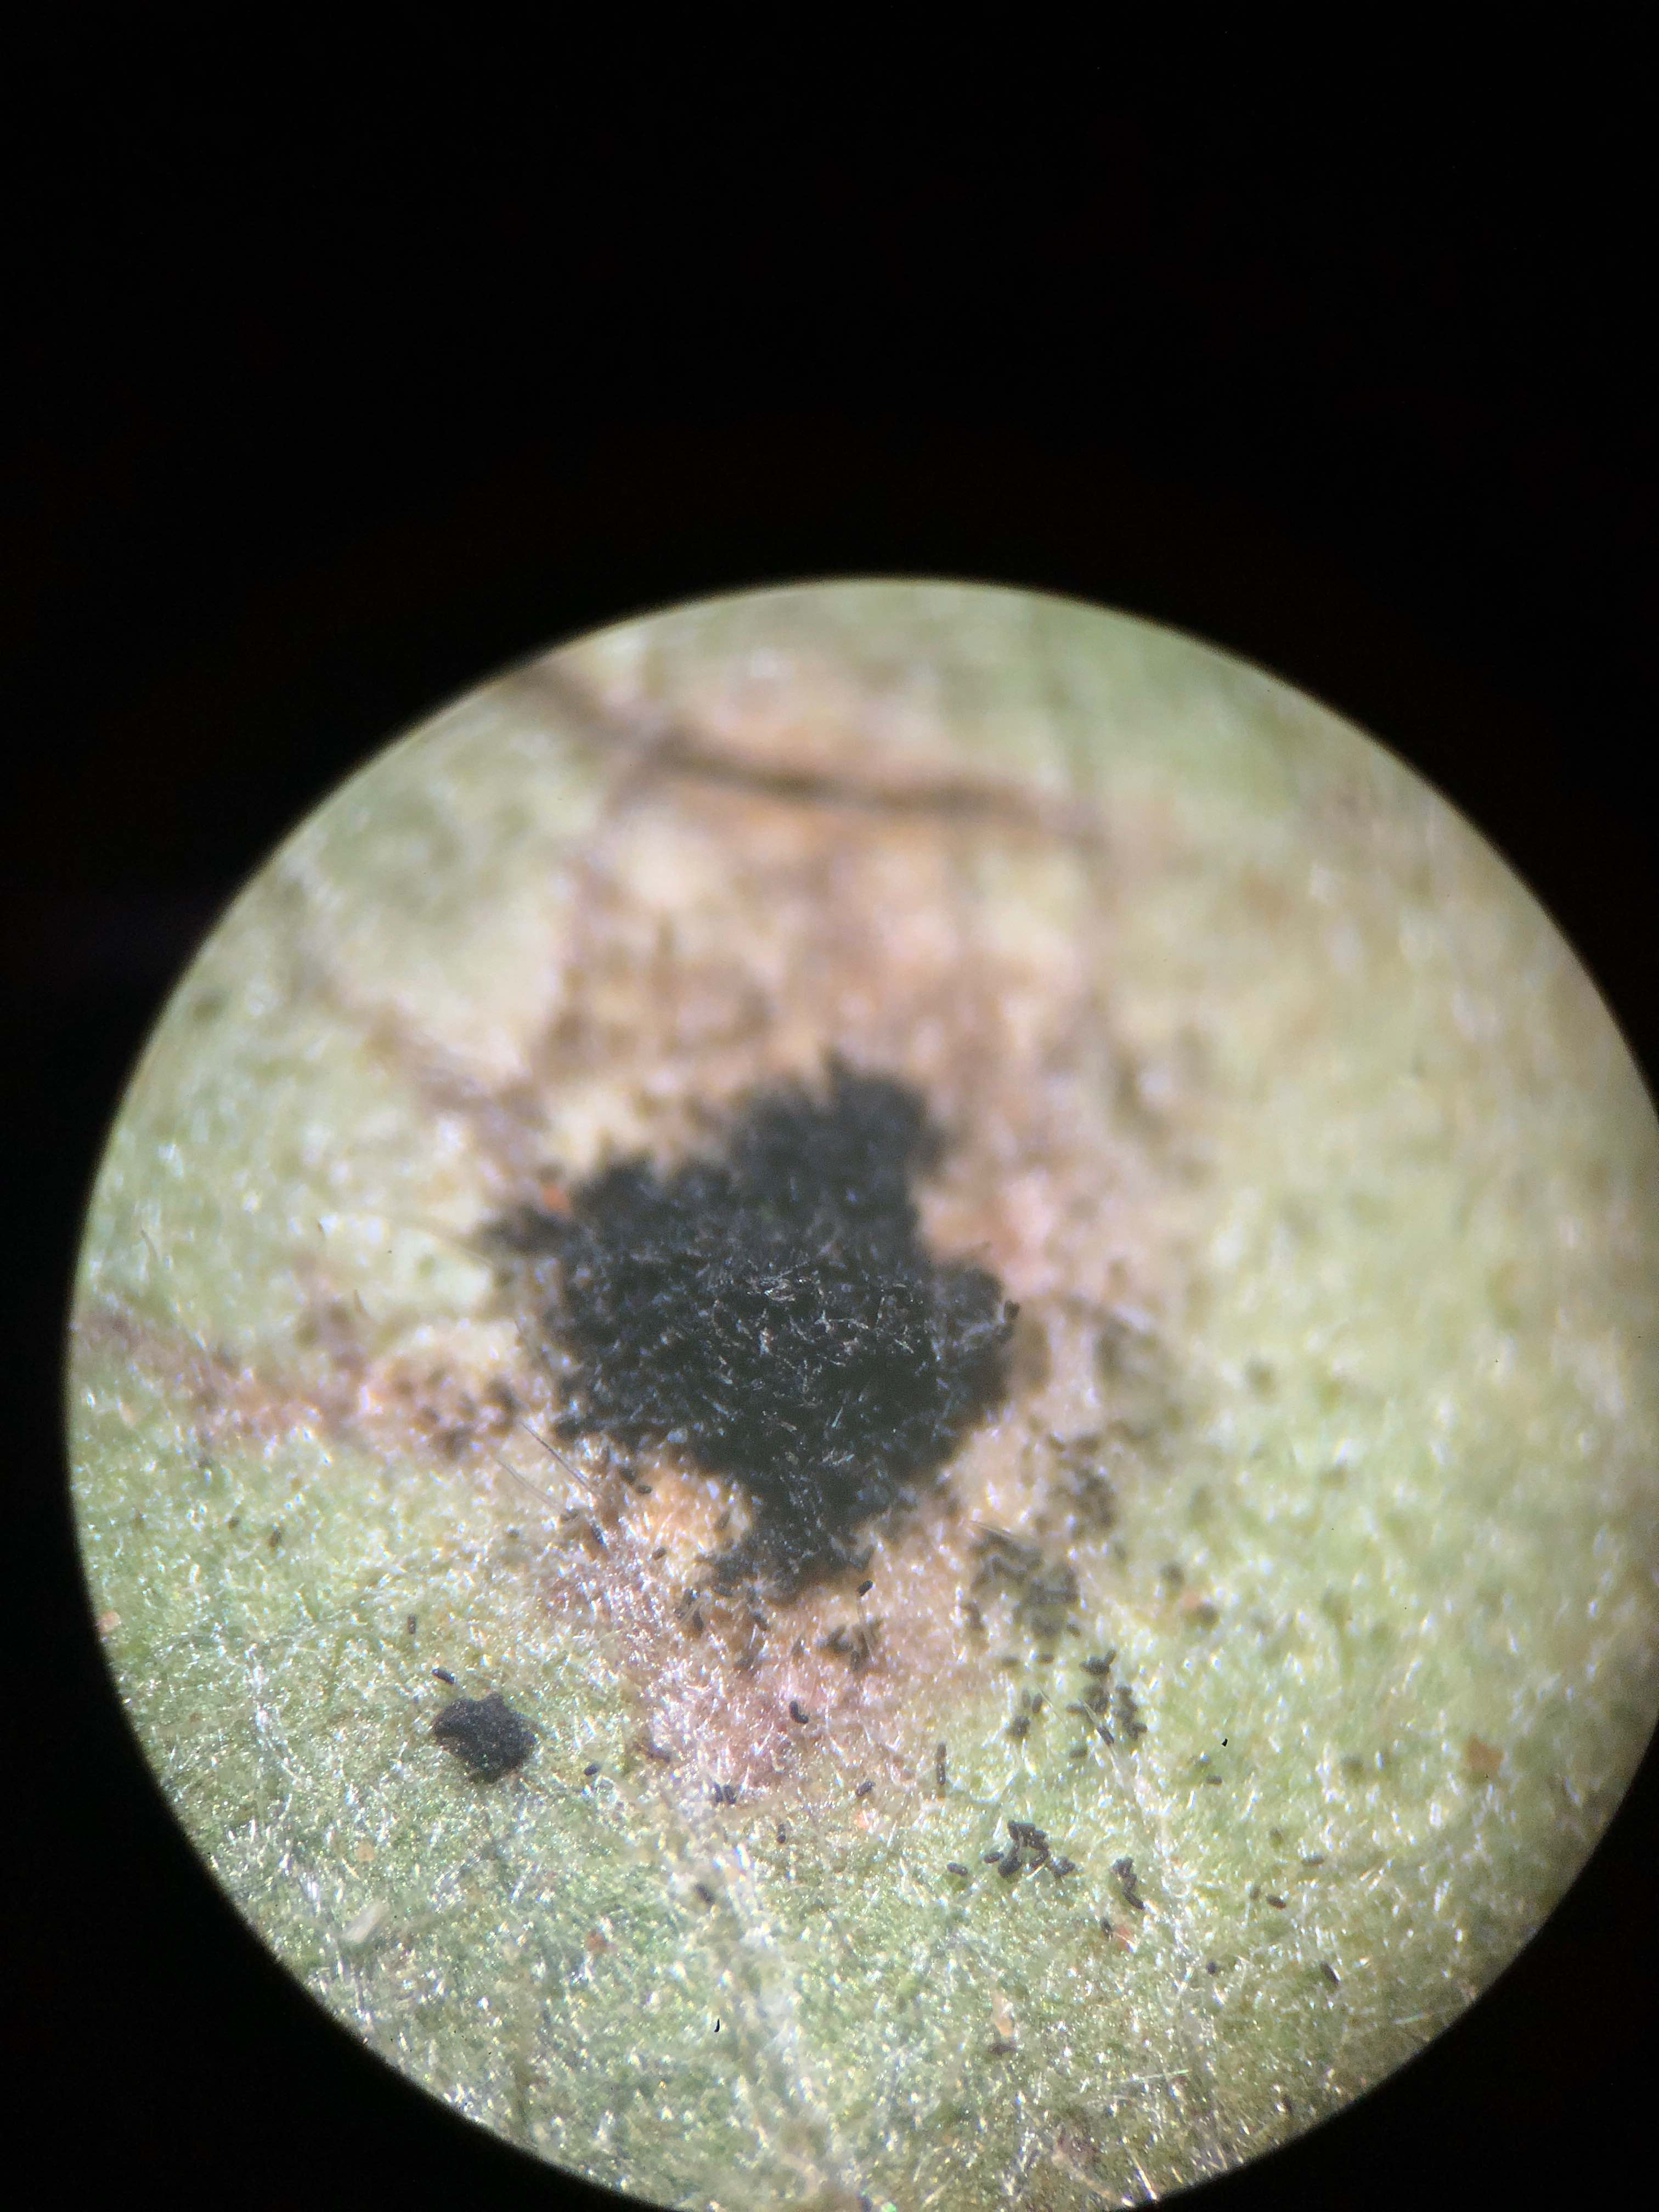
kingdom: Fungi
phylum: Basidiomycota
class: Pucciniomycetes
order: Pucciniales
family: Phragmidiaceae
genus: Phragmidium
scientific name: Phragmidium violaceum
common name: violet flercellerust
